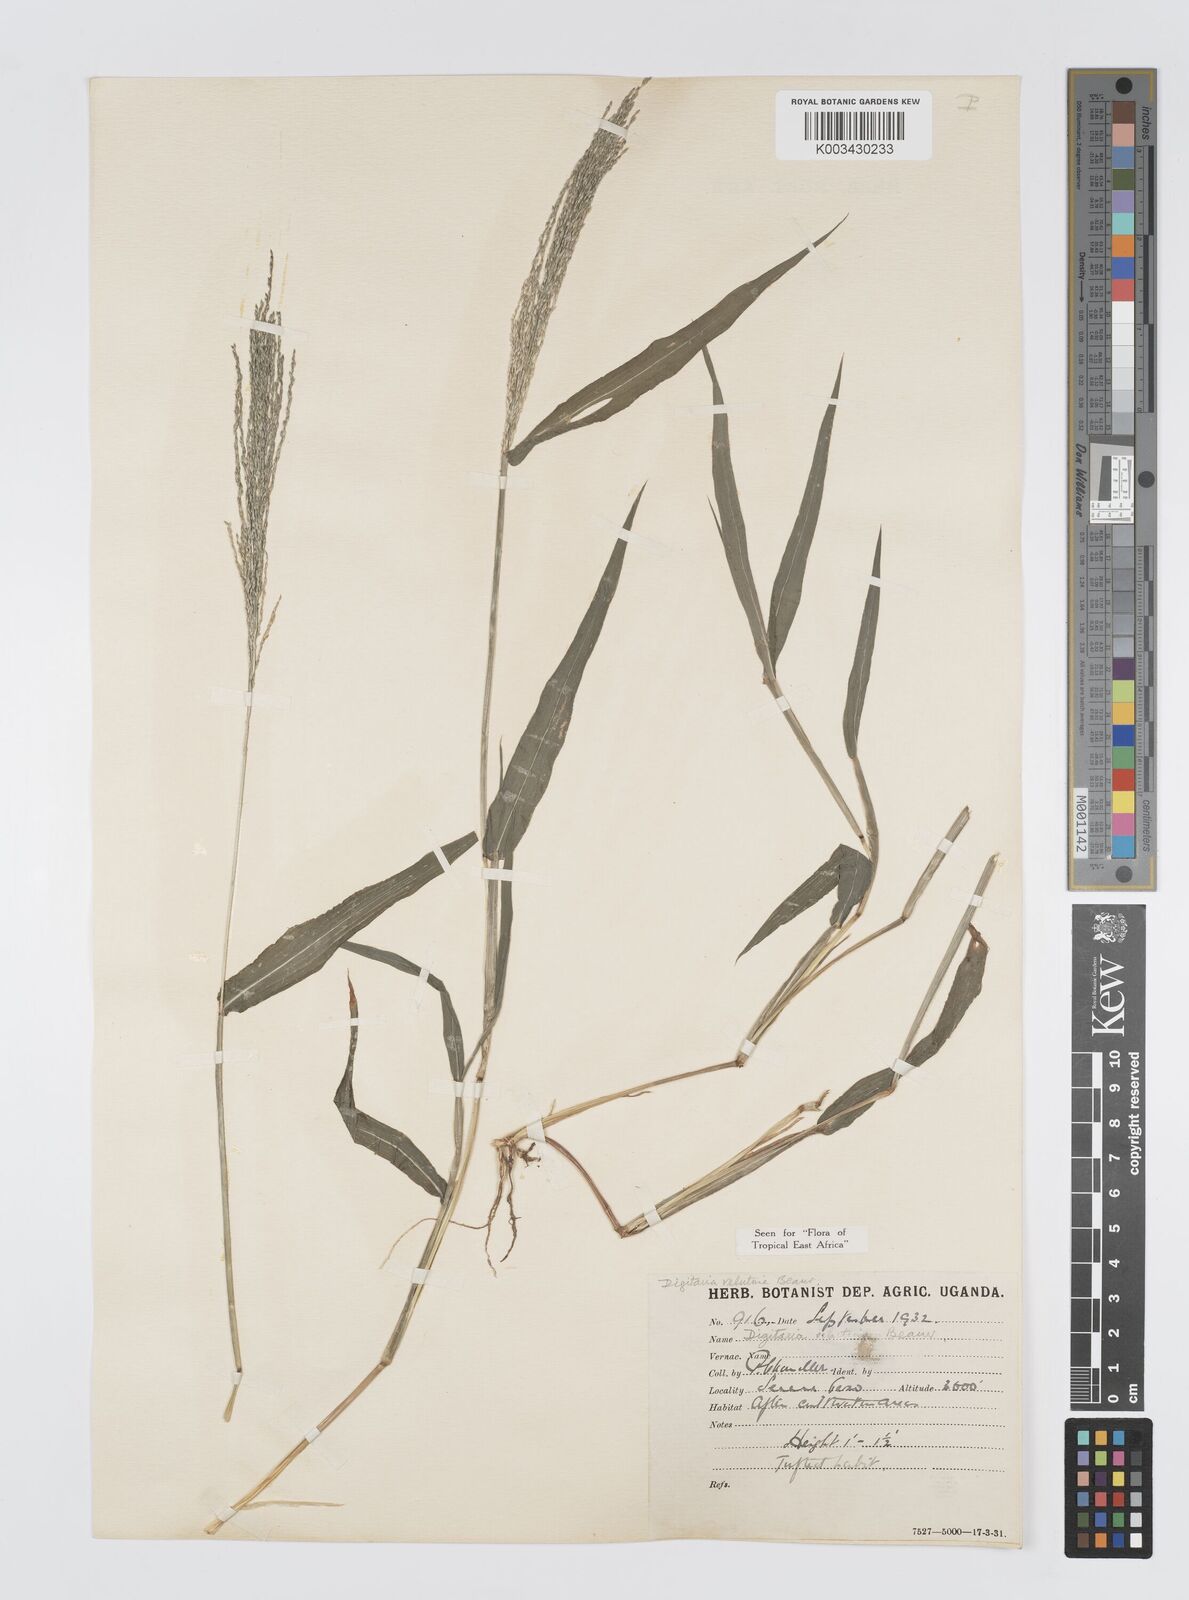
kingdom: Plantae
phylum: Tracheophyta
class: Liliopsida
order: Poales
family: Poaceae
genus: Digitaria
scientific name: Digitaria velutina
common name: Long-plume finger grass
